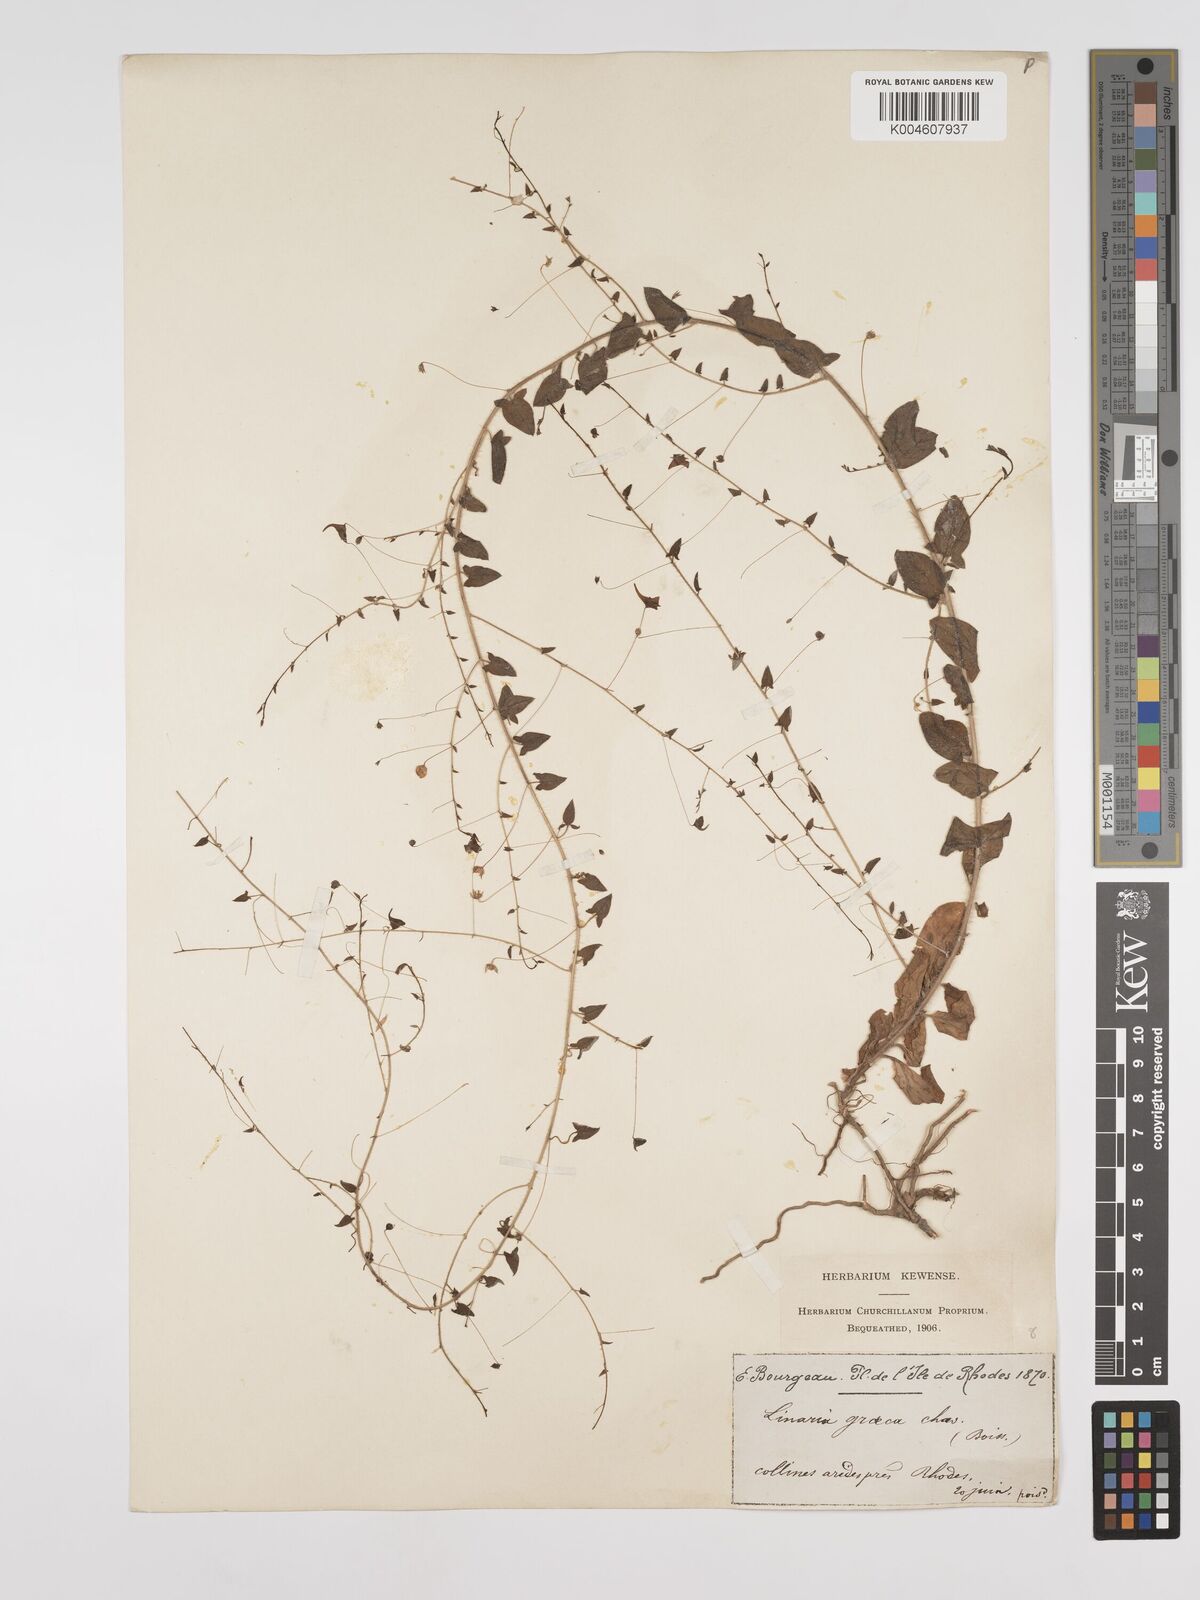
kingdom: Plantae
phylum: Tracheophyta
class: Magnoliopsida
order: Lamiales
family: Plantaginaceae
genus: Kickxia
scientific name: Kickxia commutata
